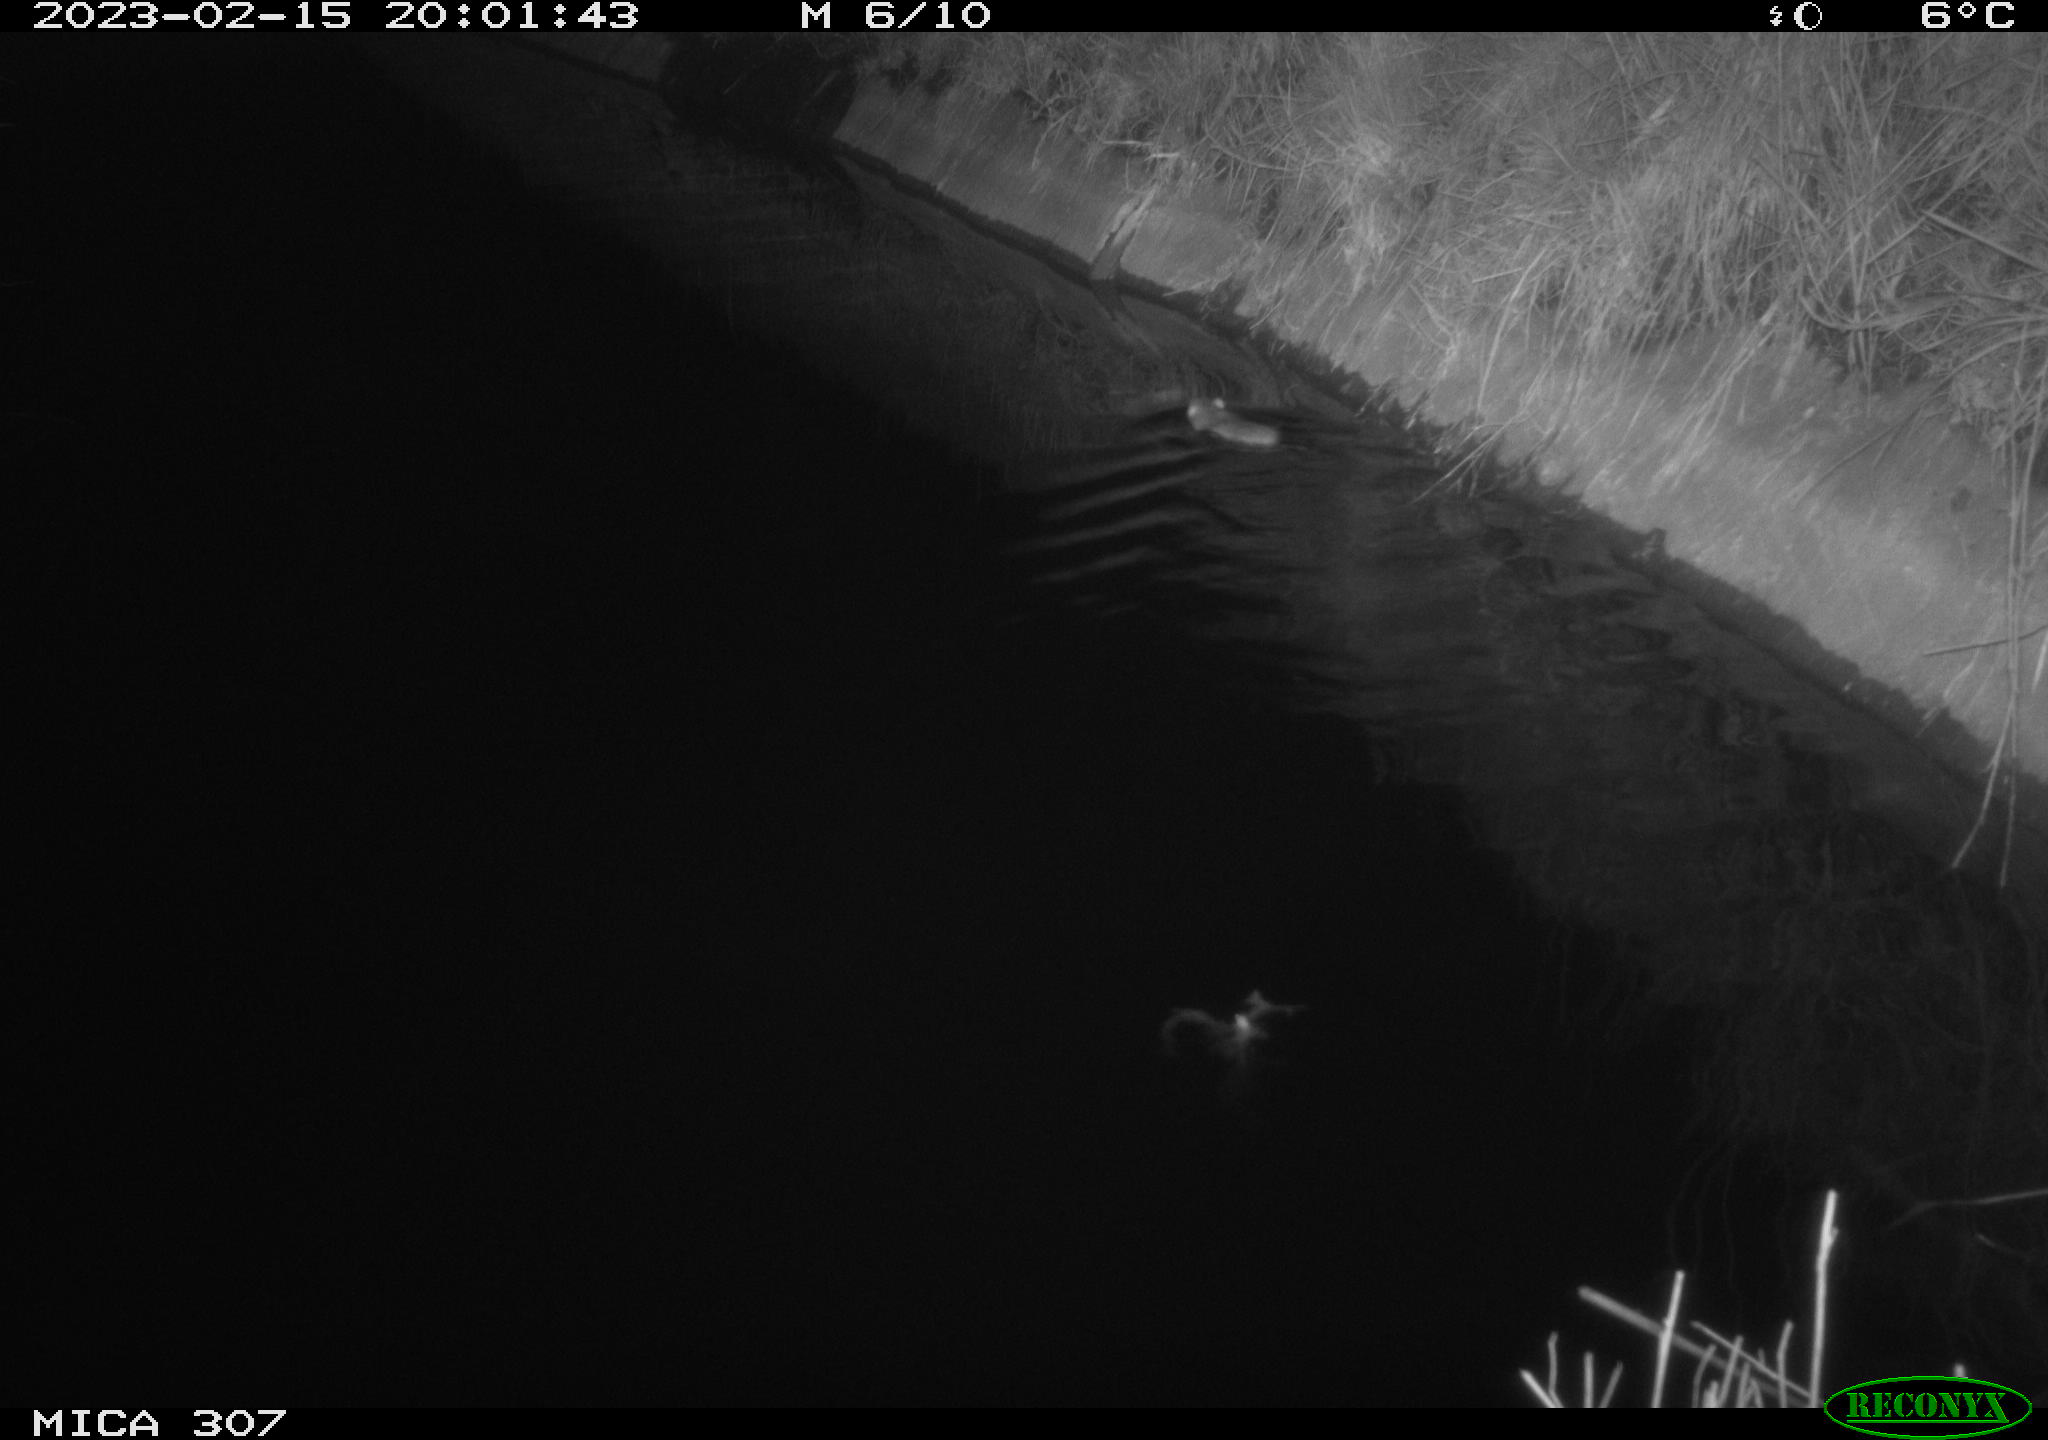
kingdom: Animalia
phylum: Chordata
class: Mammalia
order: Rodentia
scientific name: Rodentia
